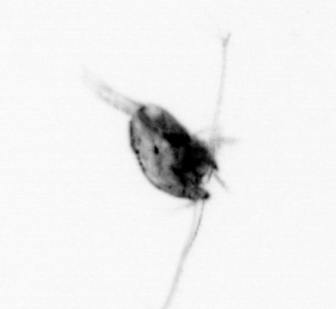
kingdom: Animalia
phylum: Arthropoda
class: Copepoda
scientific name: Copepoda
